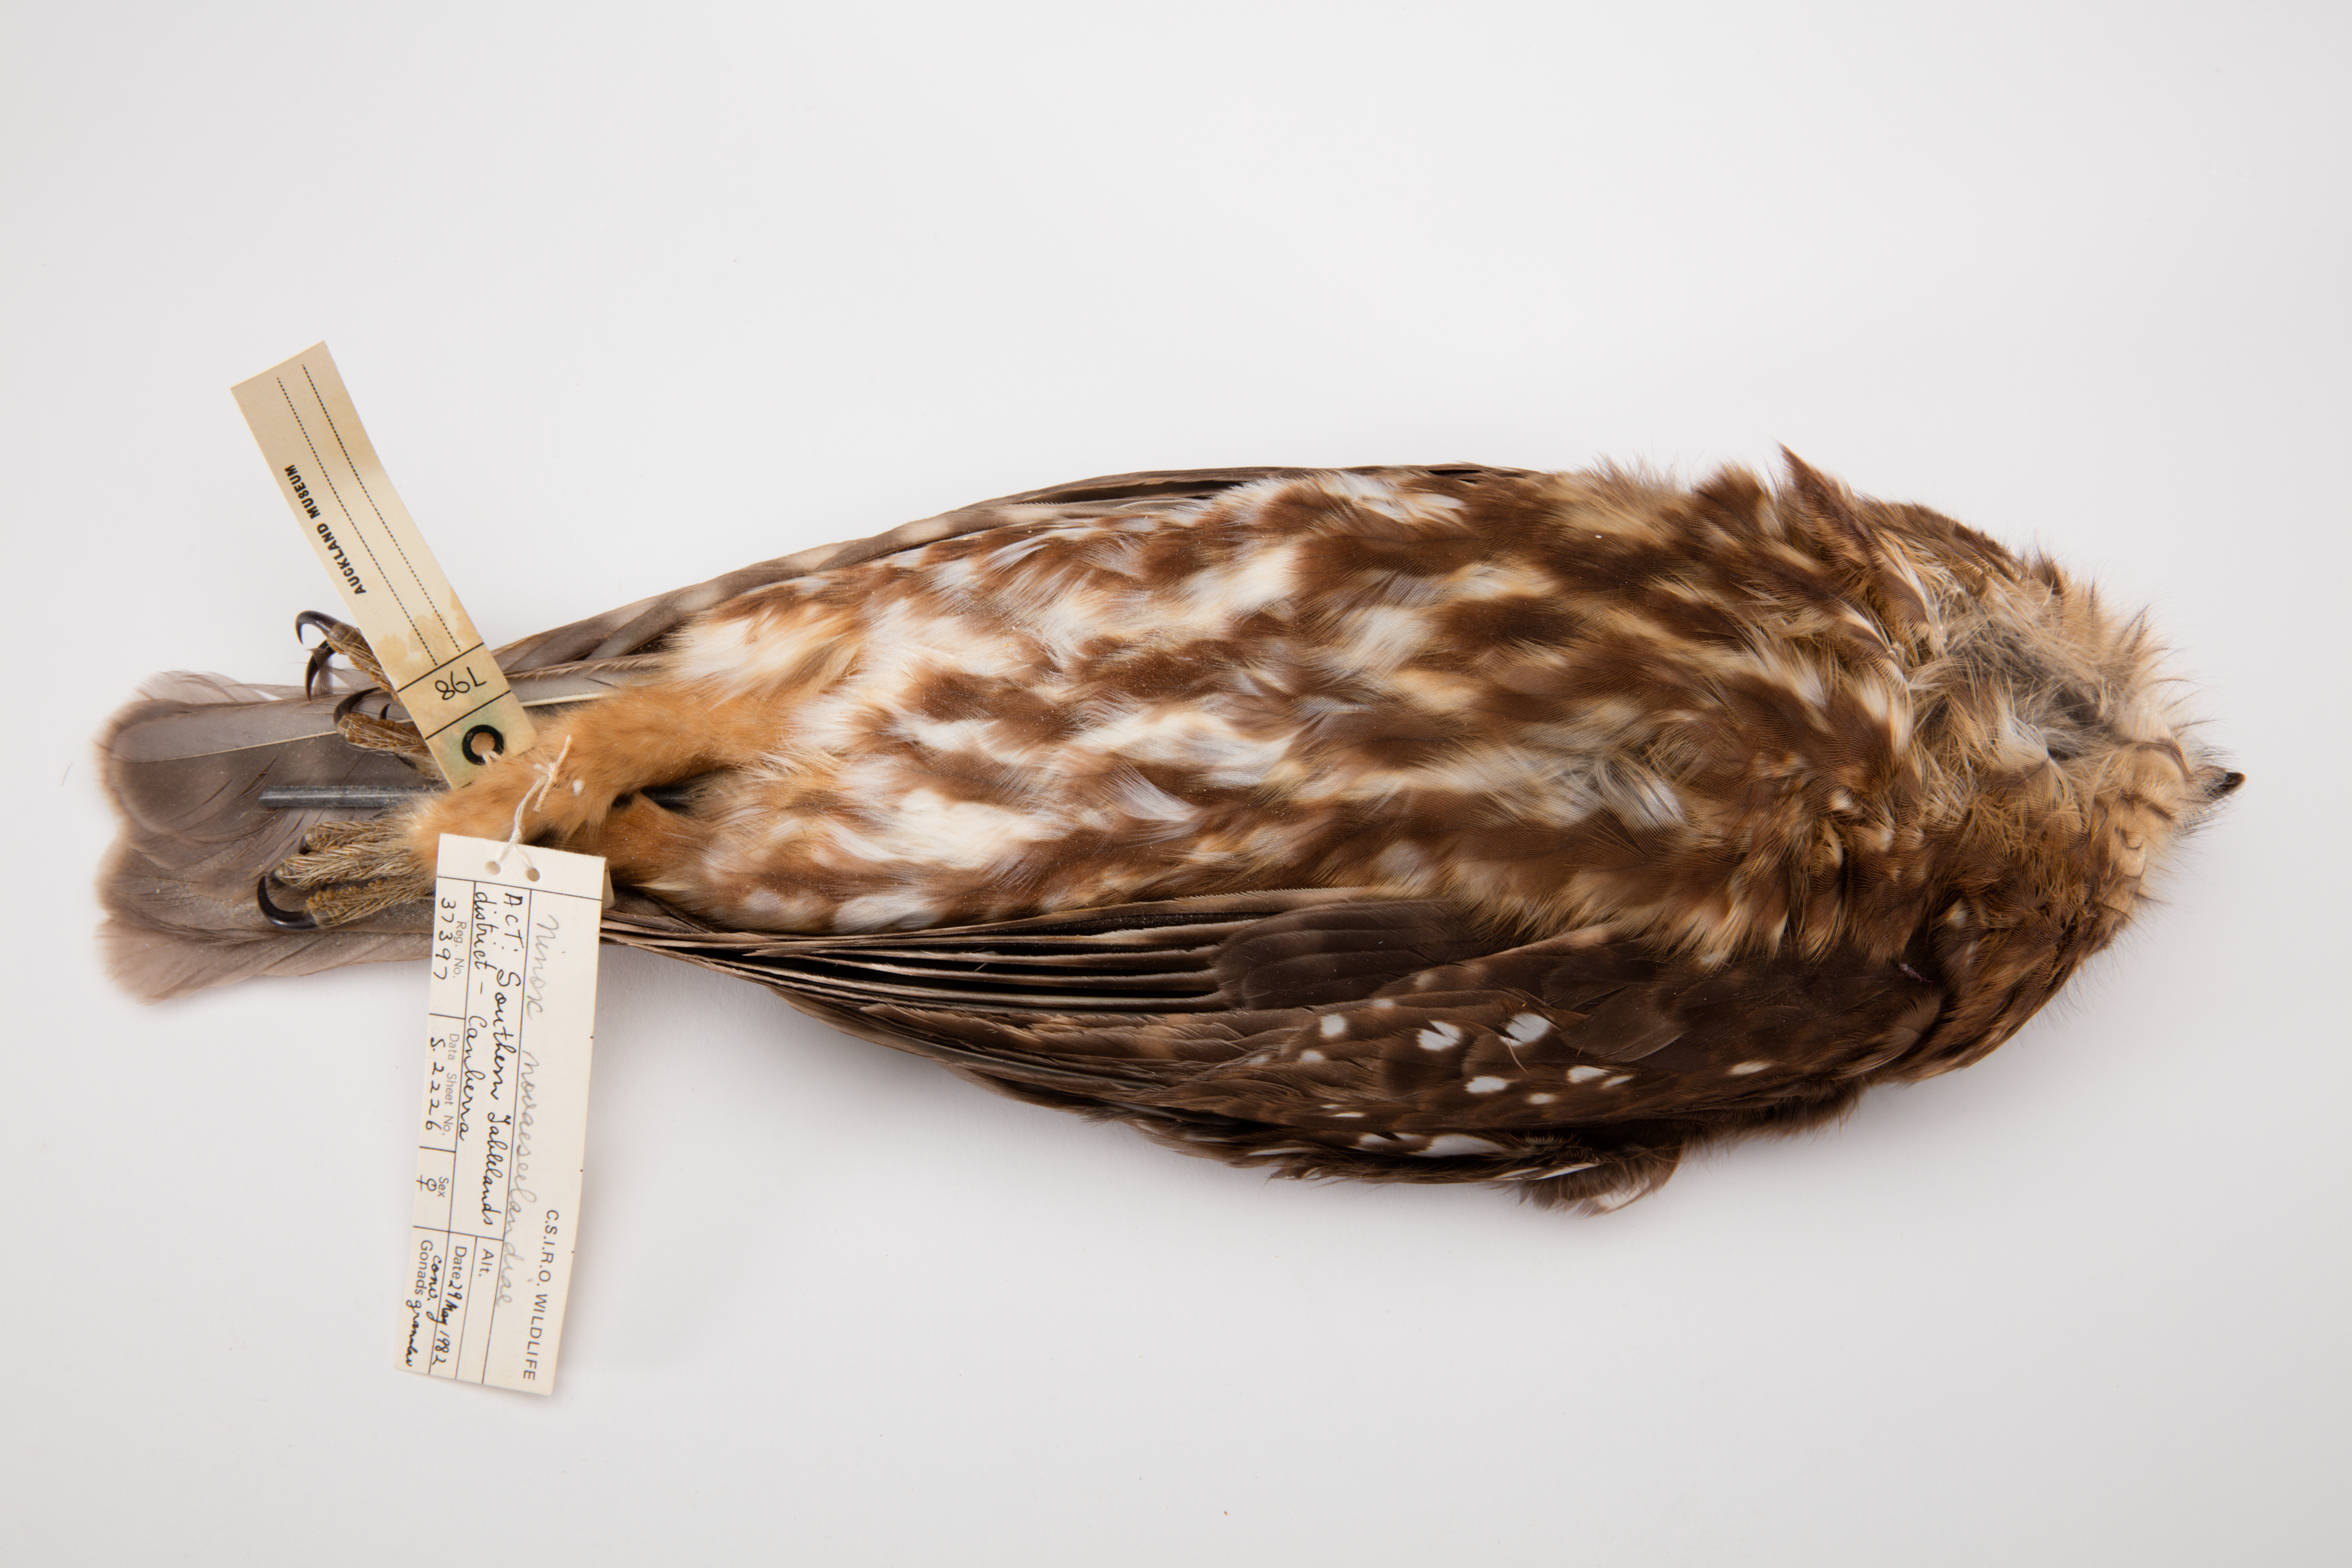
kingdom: Animalia
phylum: Chordata
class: Aves
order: Strigiformes
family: Strigidae
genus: Ninox
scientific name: Ninox novaeseelandiae
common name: Morepork
